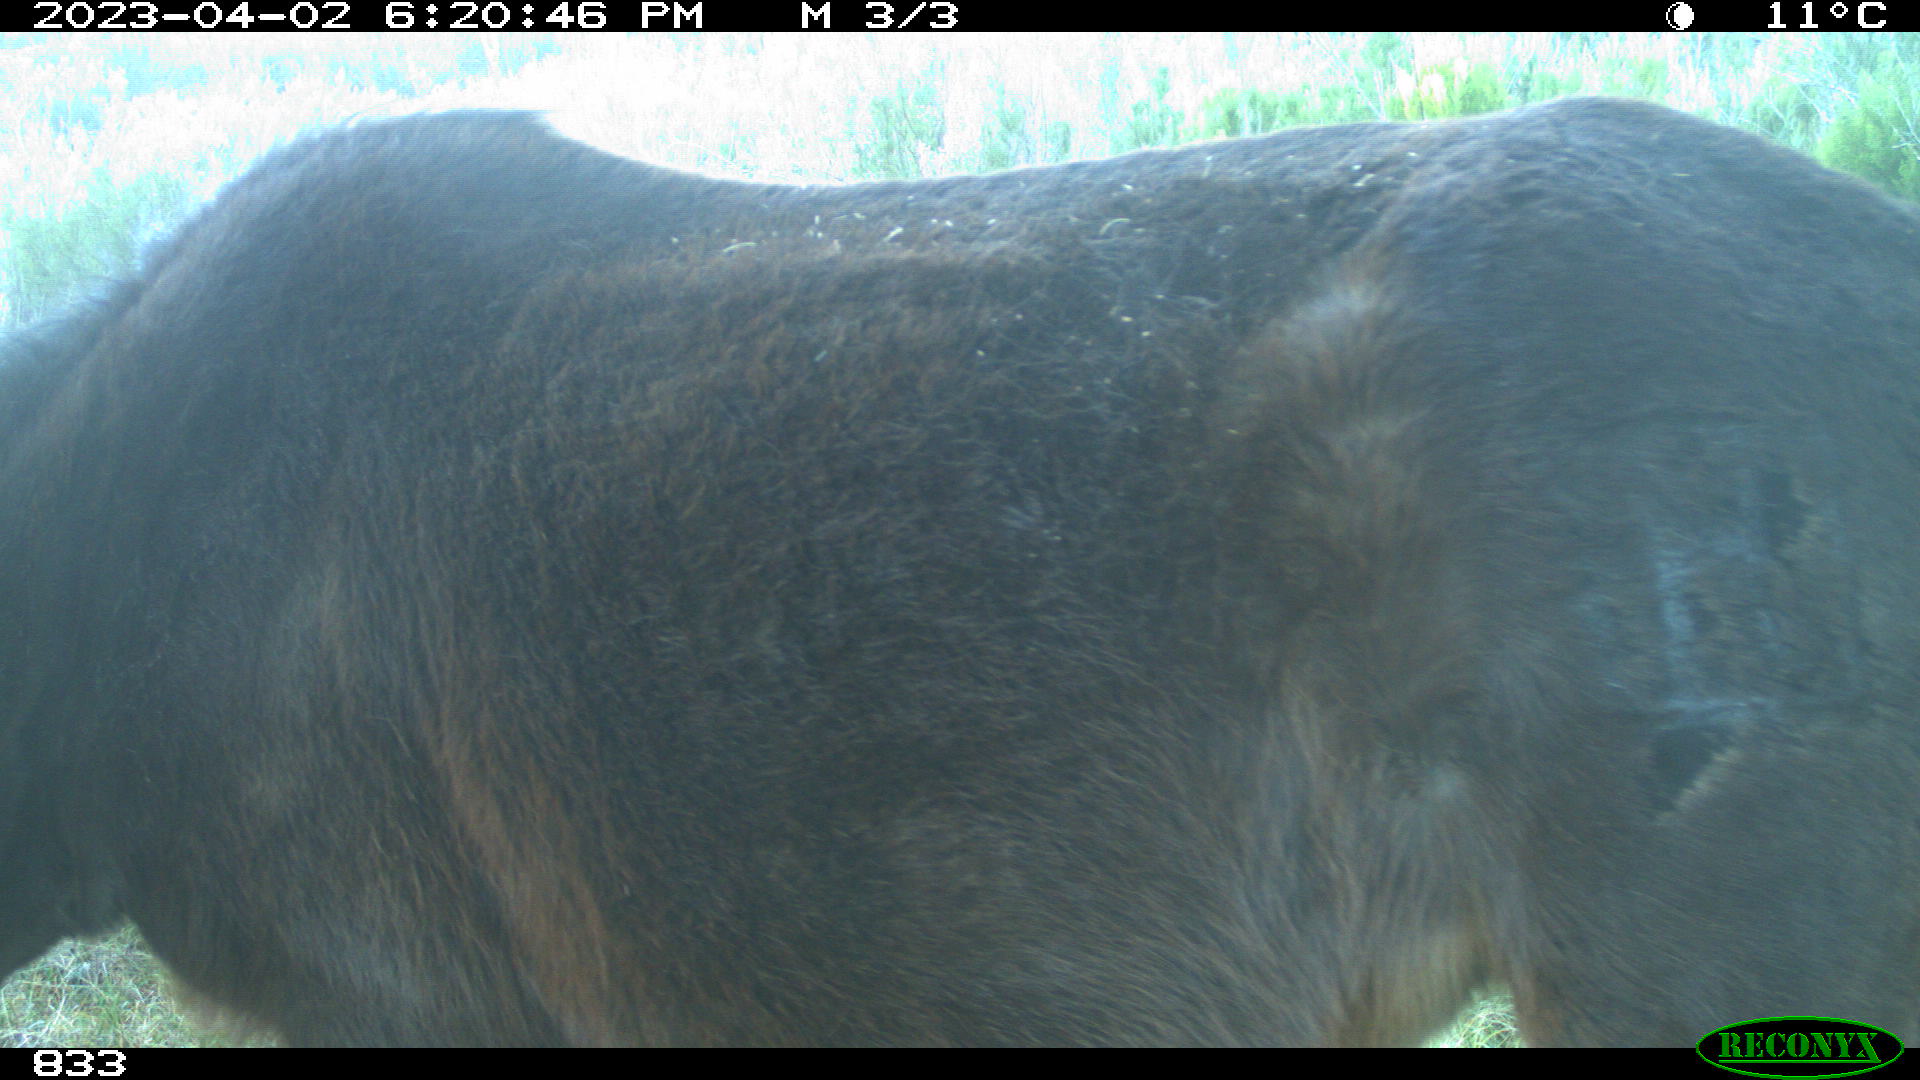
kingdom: Animalia
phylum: Chordata
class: Mammalia
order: Perissodactyla
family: Equidae
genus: Equus
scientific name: Equus caballus
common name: Horse
